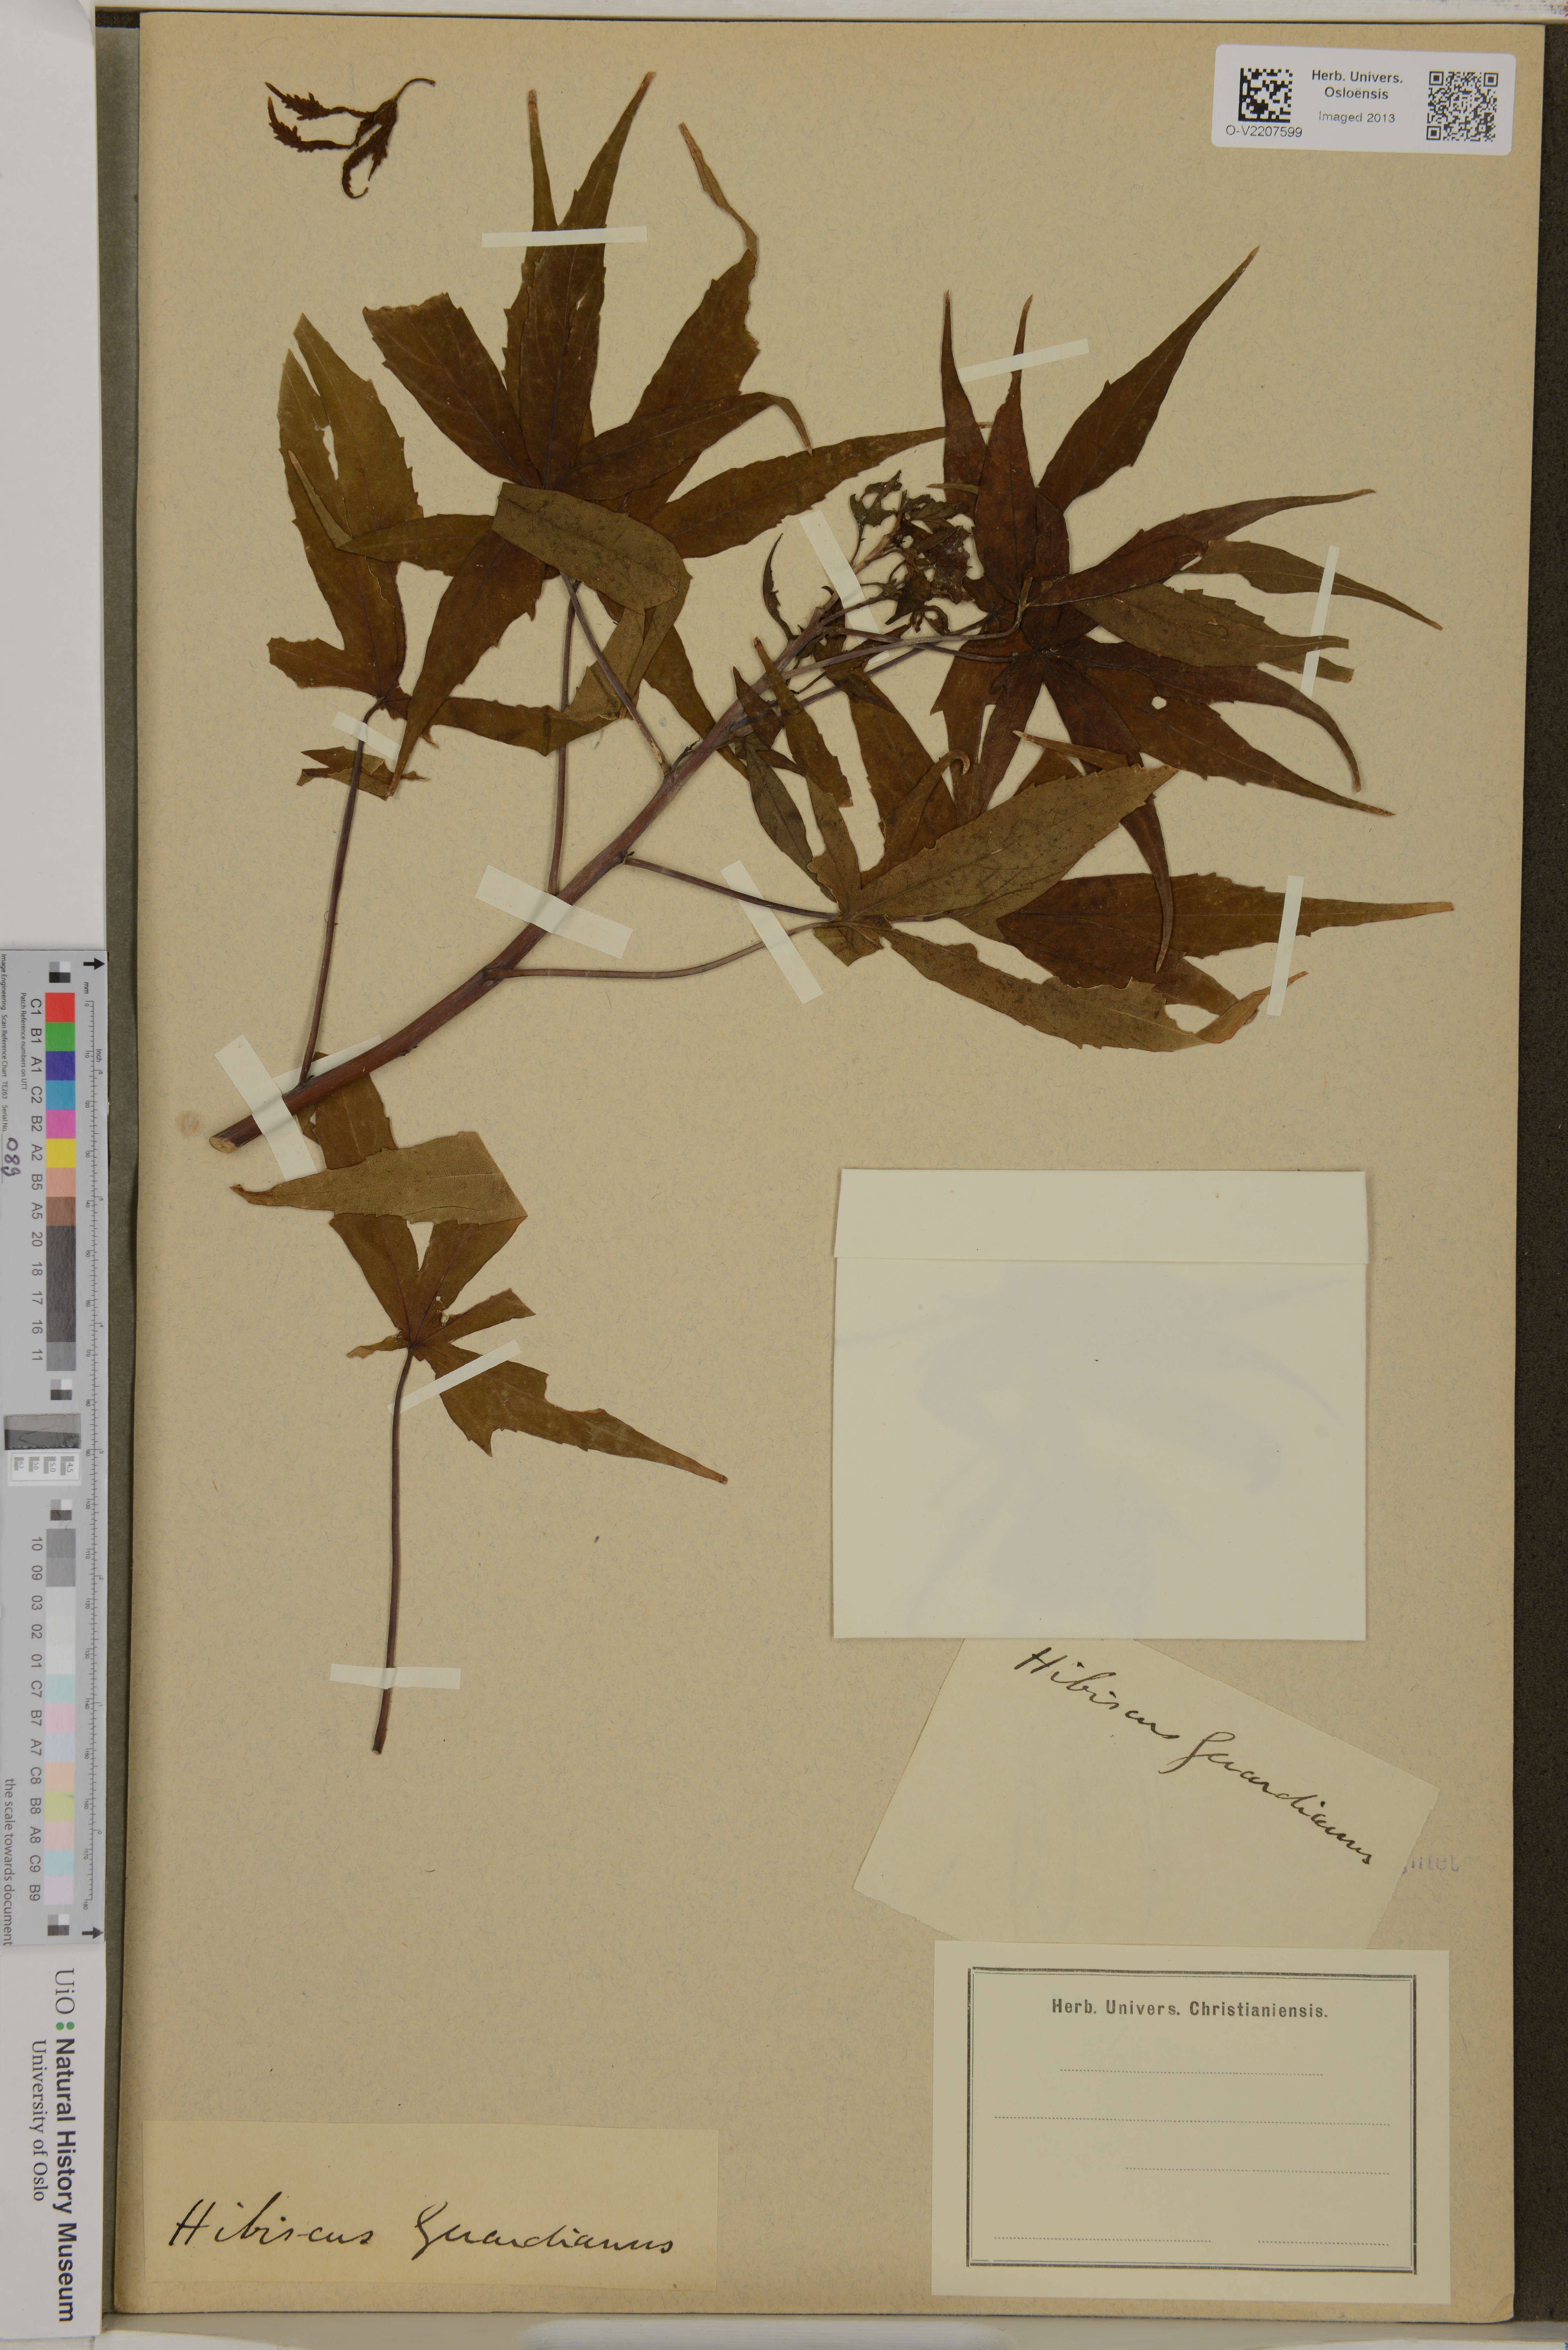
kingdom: Plantae
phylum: Tracheophyta
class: Magnoliopsida
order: Malvales
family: Malvaceae
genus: Hibiscus
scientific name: Hibiscus
